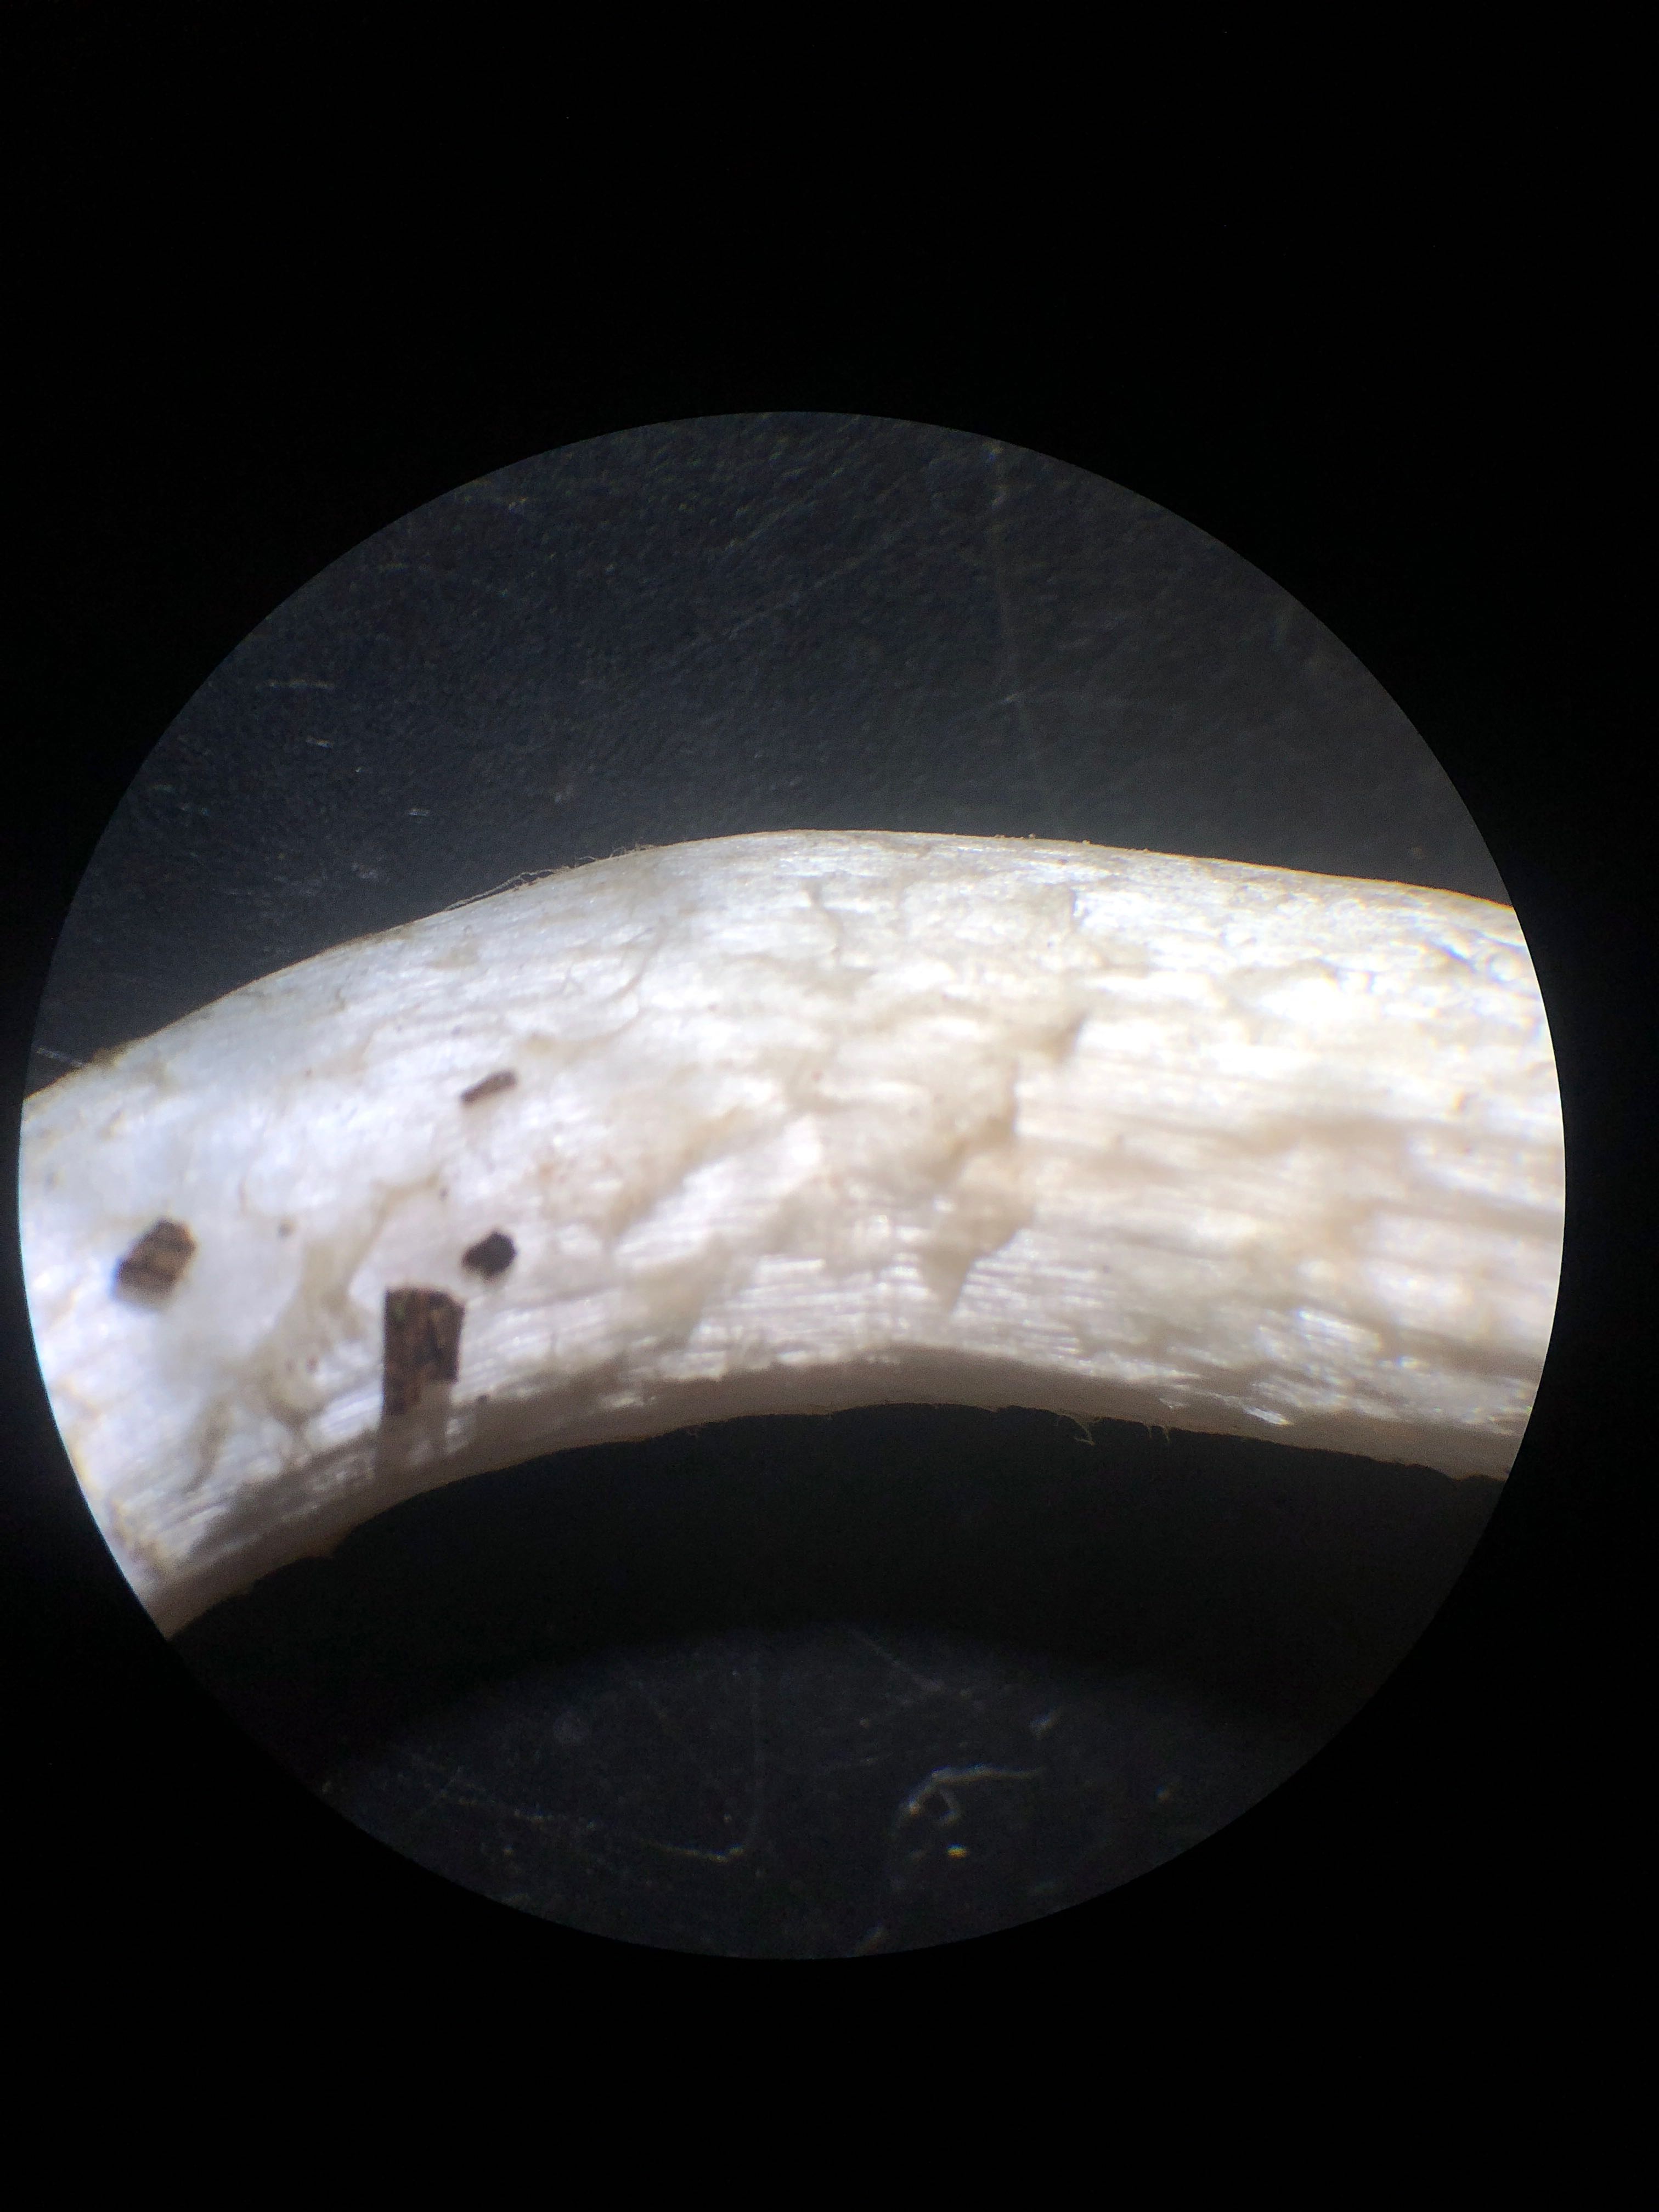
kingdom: Fungi
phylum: Basidiomycota
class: Agaricomycetes
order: Agaricales
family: Psathyrellaceae
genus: Psathyrella
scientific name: Psathyrella cotonea
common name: skællet mørkhat
